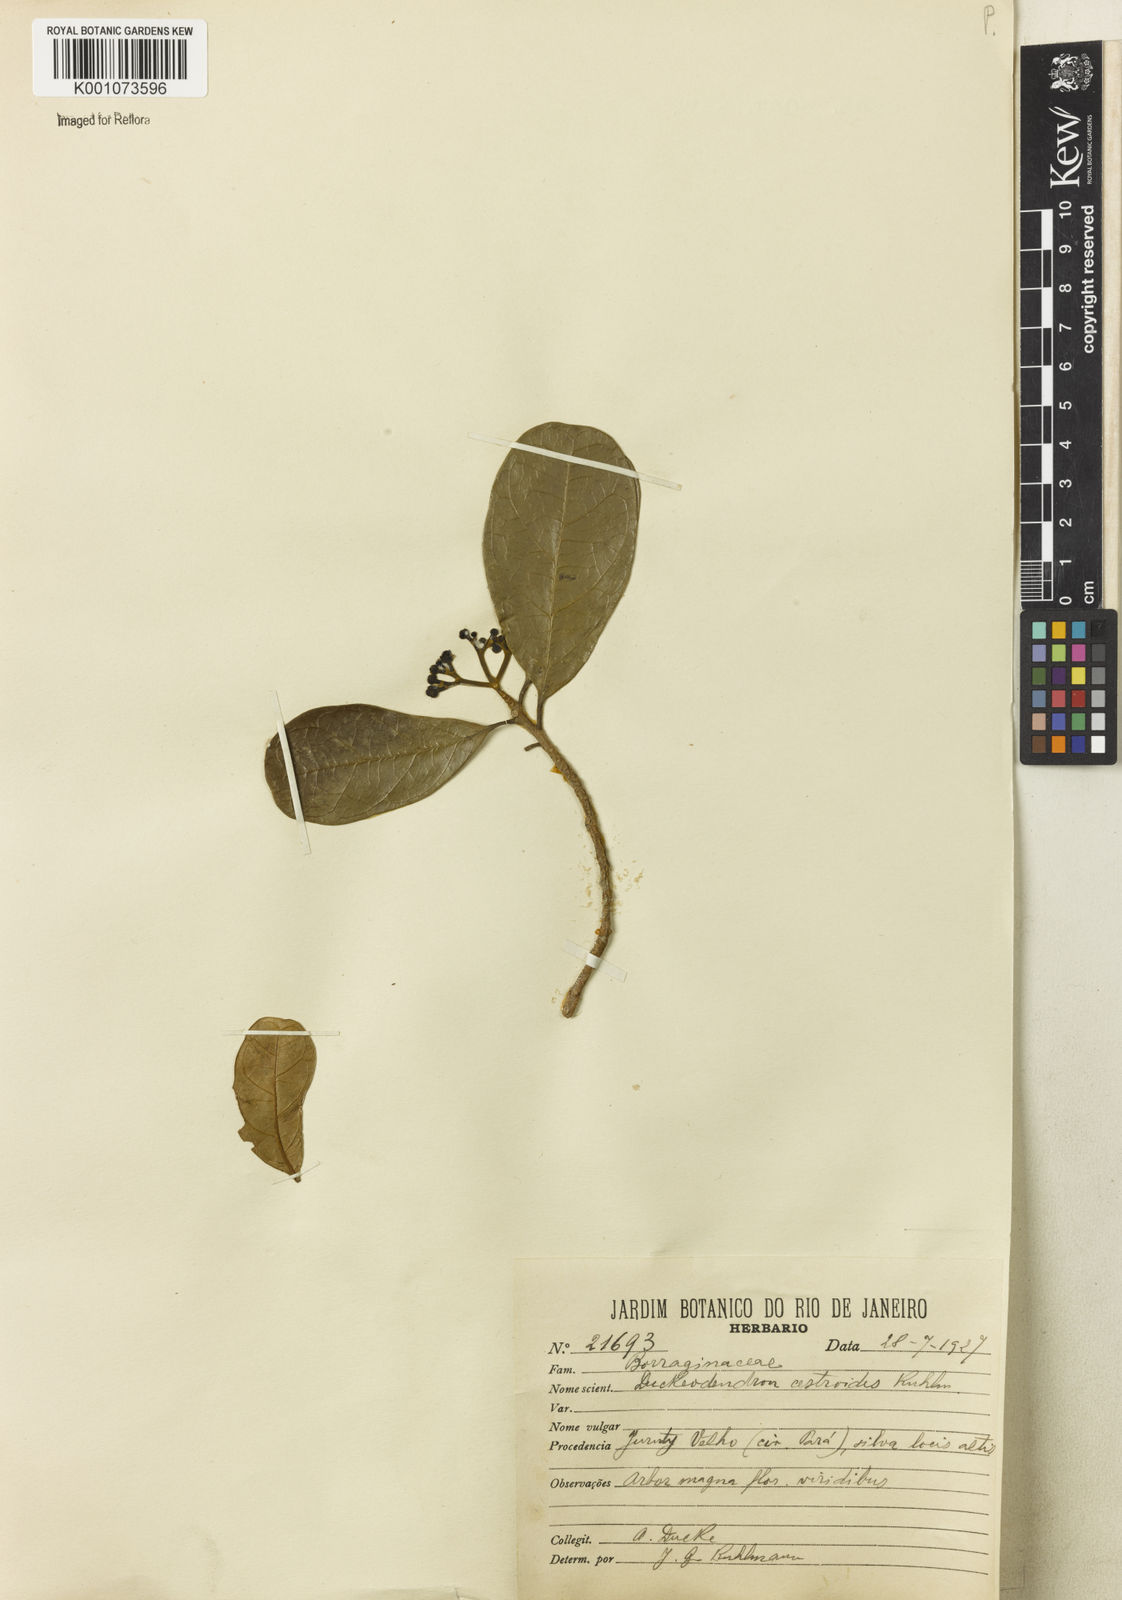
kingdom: Plantae
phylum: Tracheophyta
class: Magnoliopsida
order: Solanales
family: Solanaceae
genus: Duckeodendron
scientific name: Duckeodendron cestroides
